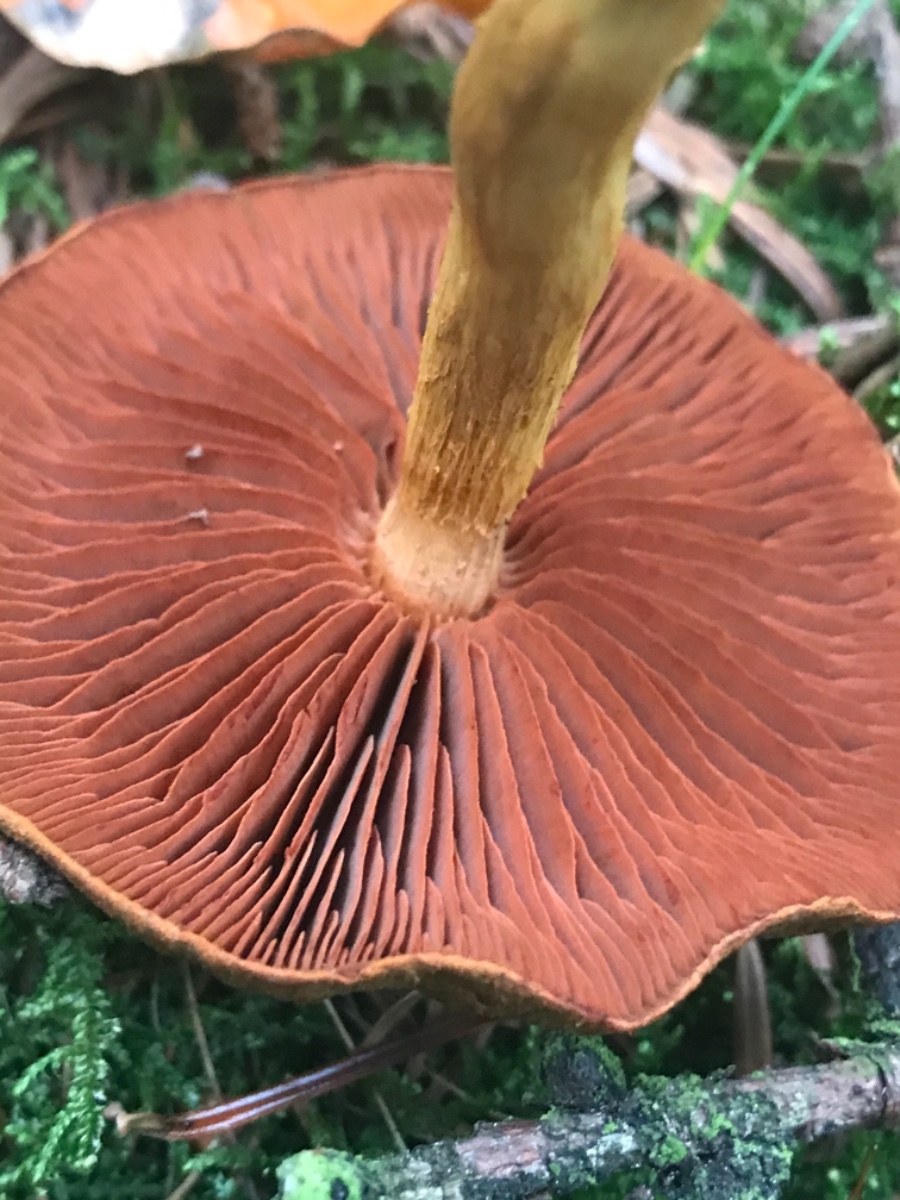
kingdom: Fungi
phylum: Basidiomycota
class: Agaricomycetes
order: Agaricales
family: Cortinariaceae
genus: Cortinarius
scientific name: Cortinarius
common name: cinnoberbladet slørhat
